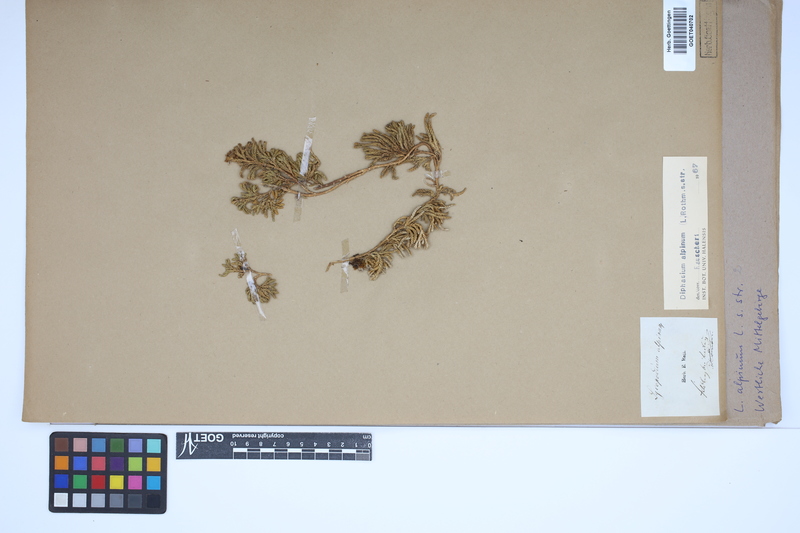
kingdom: Plantae
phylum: Tracheophyta
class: Lycopodiopsida
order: Lycopodiales
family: Lycopodiaceae
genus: Diphasiastrum
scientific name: Diphasiastrum alpinum
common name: Alpine clubmoss
